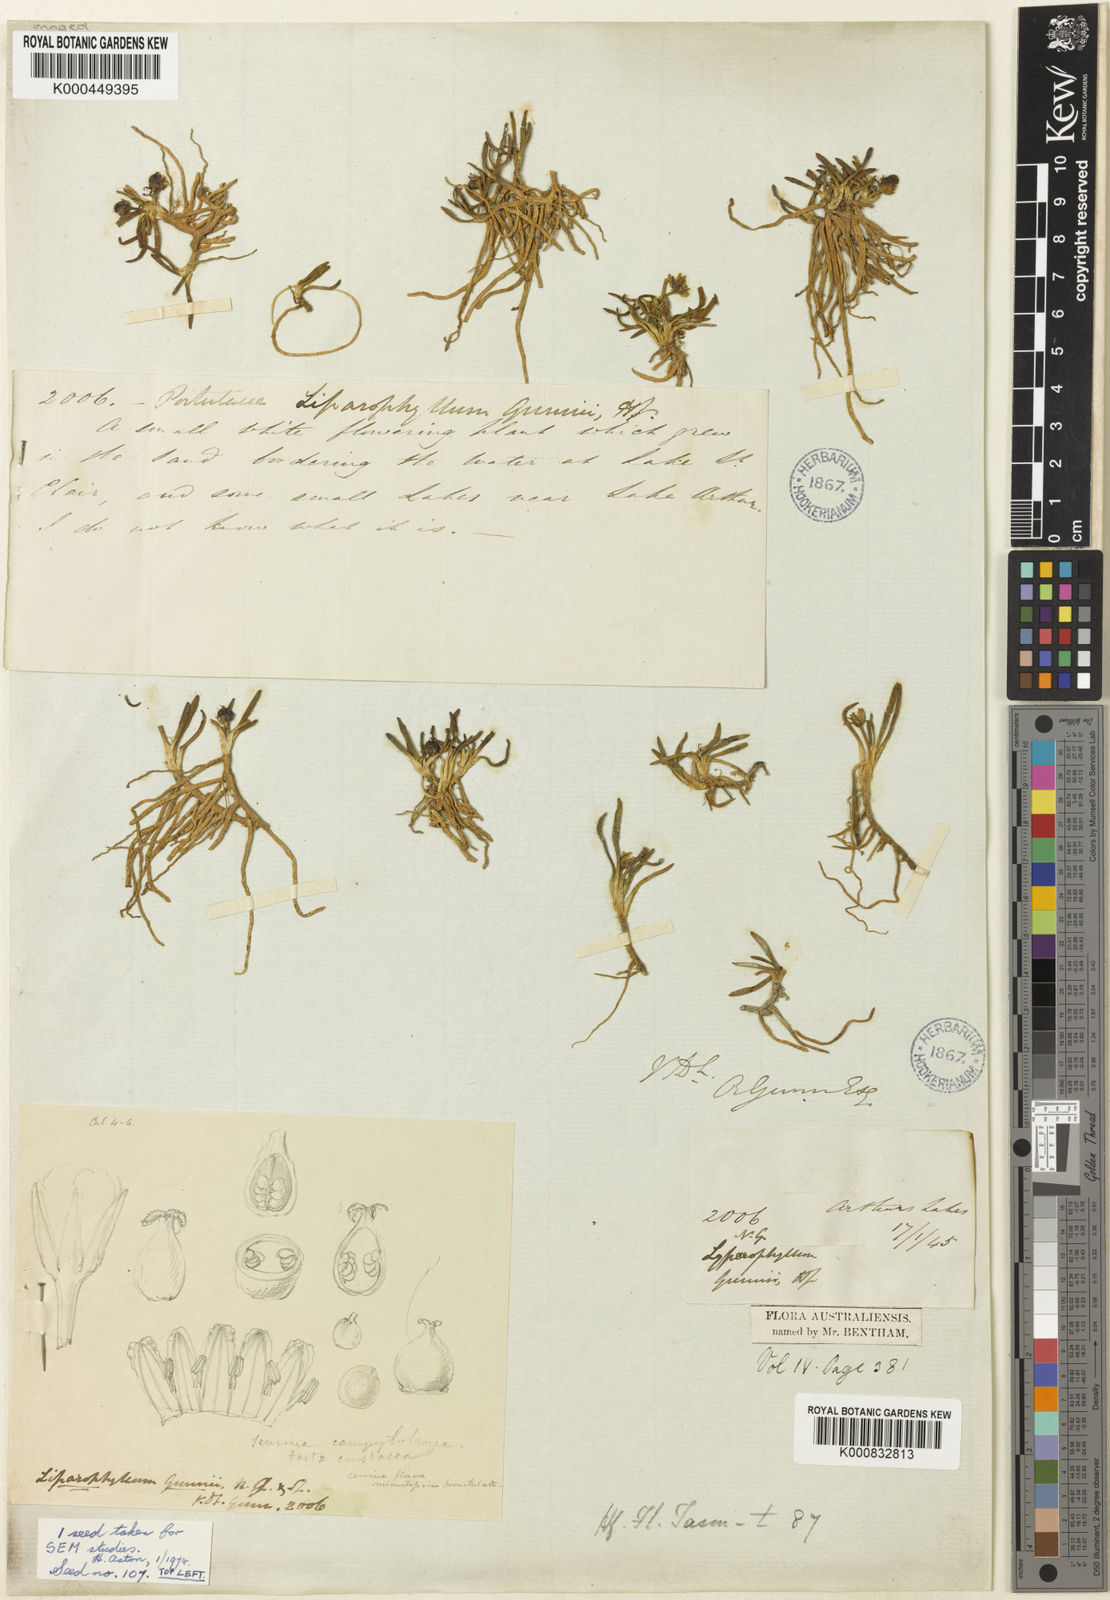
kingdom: Plantae
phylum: Tracheophyta
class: Magnoliopsida
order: Asterales
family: Menyanthaceae
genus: Liparophyllum
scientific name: Liparophyllum gunnii
